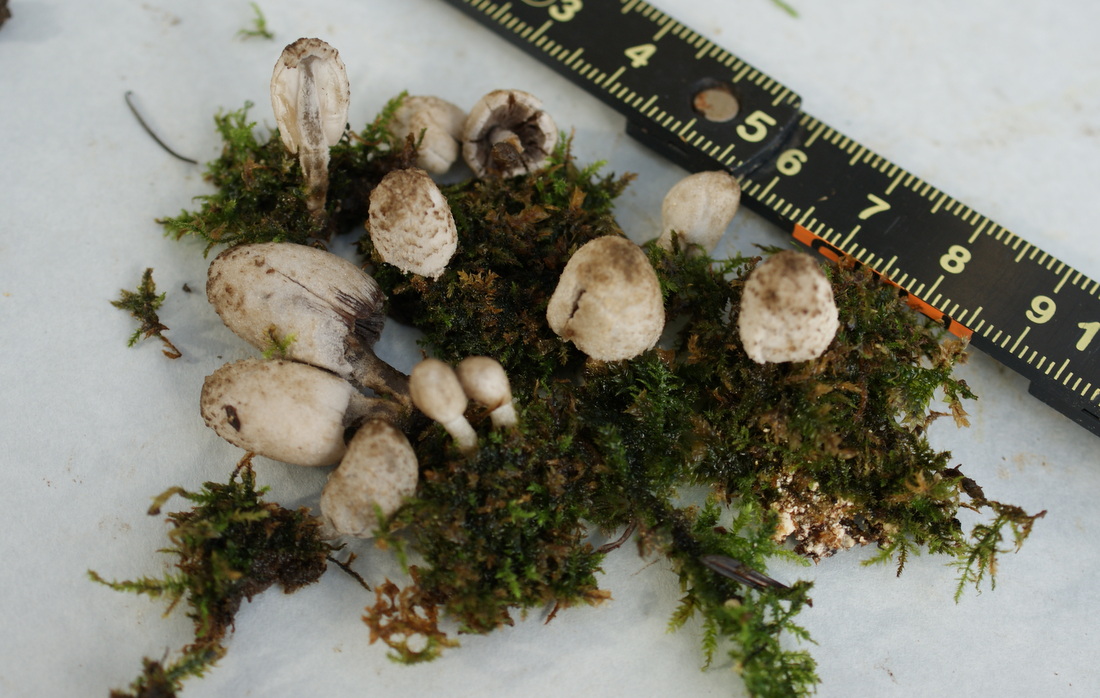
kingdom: Fungi
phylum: Basidiomycota
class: Agaricomycetes
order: Agaricales
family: Psathyrellaceae
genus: Coprinopsis
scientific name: Coprinopsis laanii
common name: stub-blækhat
